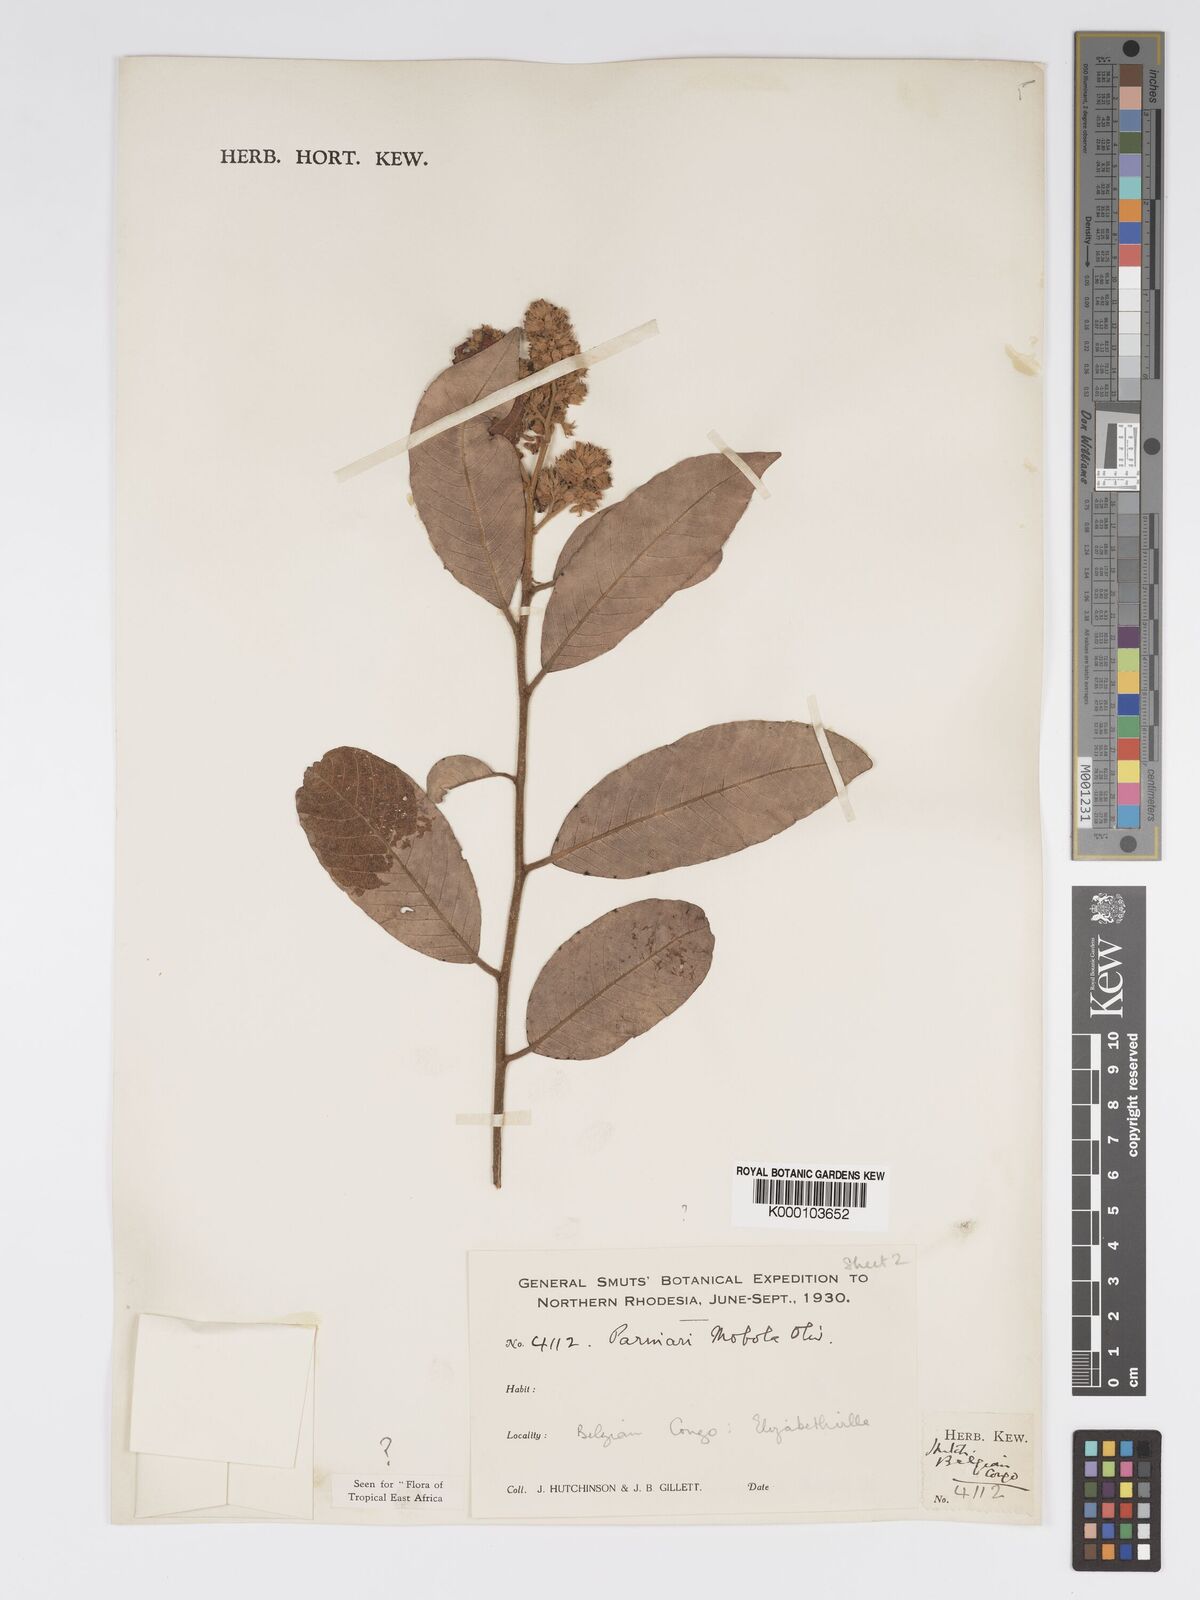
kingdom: Plantae
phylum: Tracheophyta
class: Magnoliopsida
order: Malpighiales
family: Chrysobalanaceae
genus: Parinari
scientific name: Parinari curatellifolia
